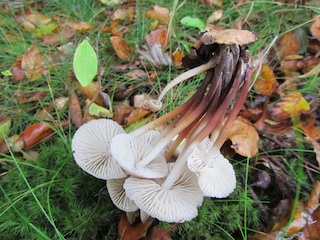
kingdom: Fungi
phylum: Basidiomycota
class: Agaricomycetes
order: Agaricales
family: Mycenaceae
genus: Mycena
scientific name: Mycena inclinata
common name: nikkende huesvamp
